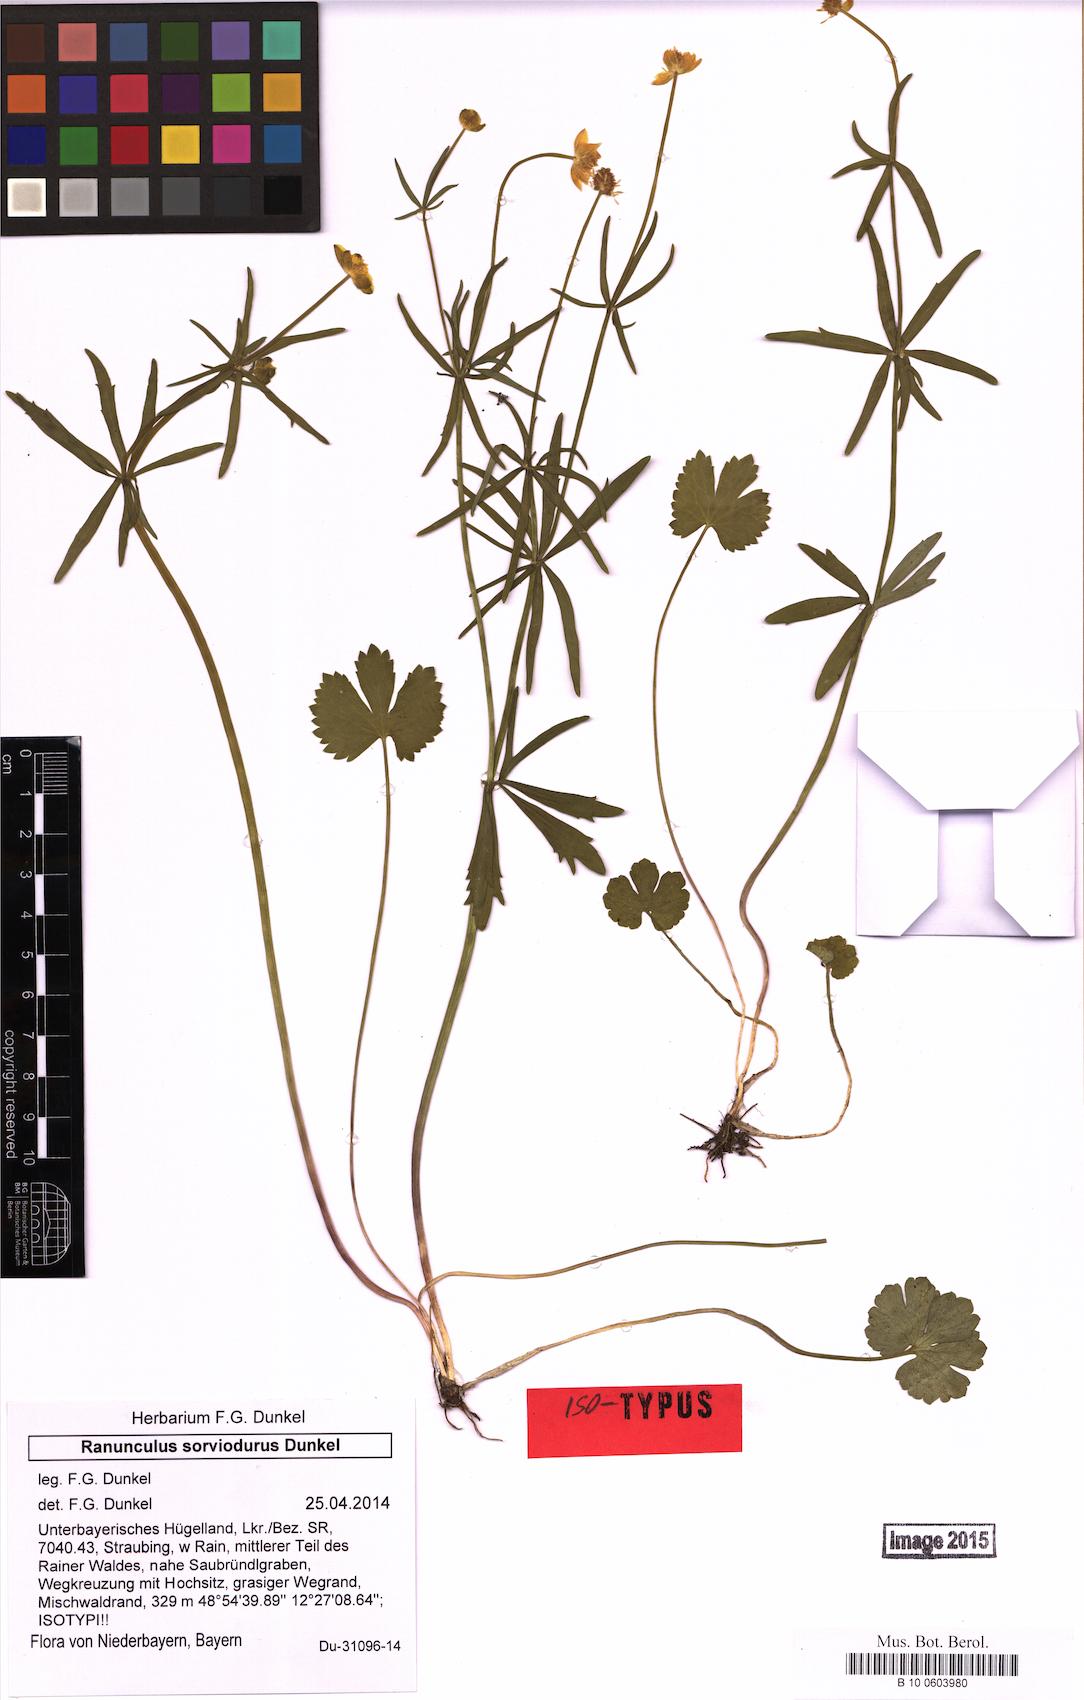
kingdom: Plantae
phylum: Tracheophyta
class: Magnoliopsida
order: Ranunculales
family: Ranunculaceae
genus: Ranunculus
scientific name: Ranunculus sorviodurus
